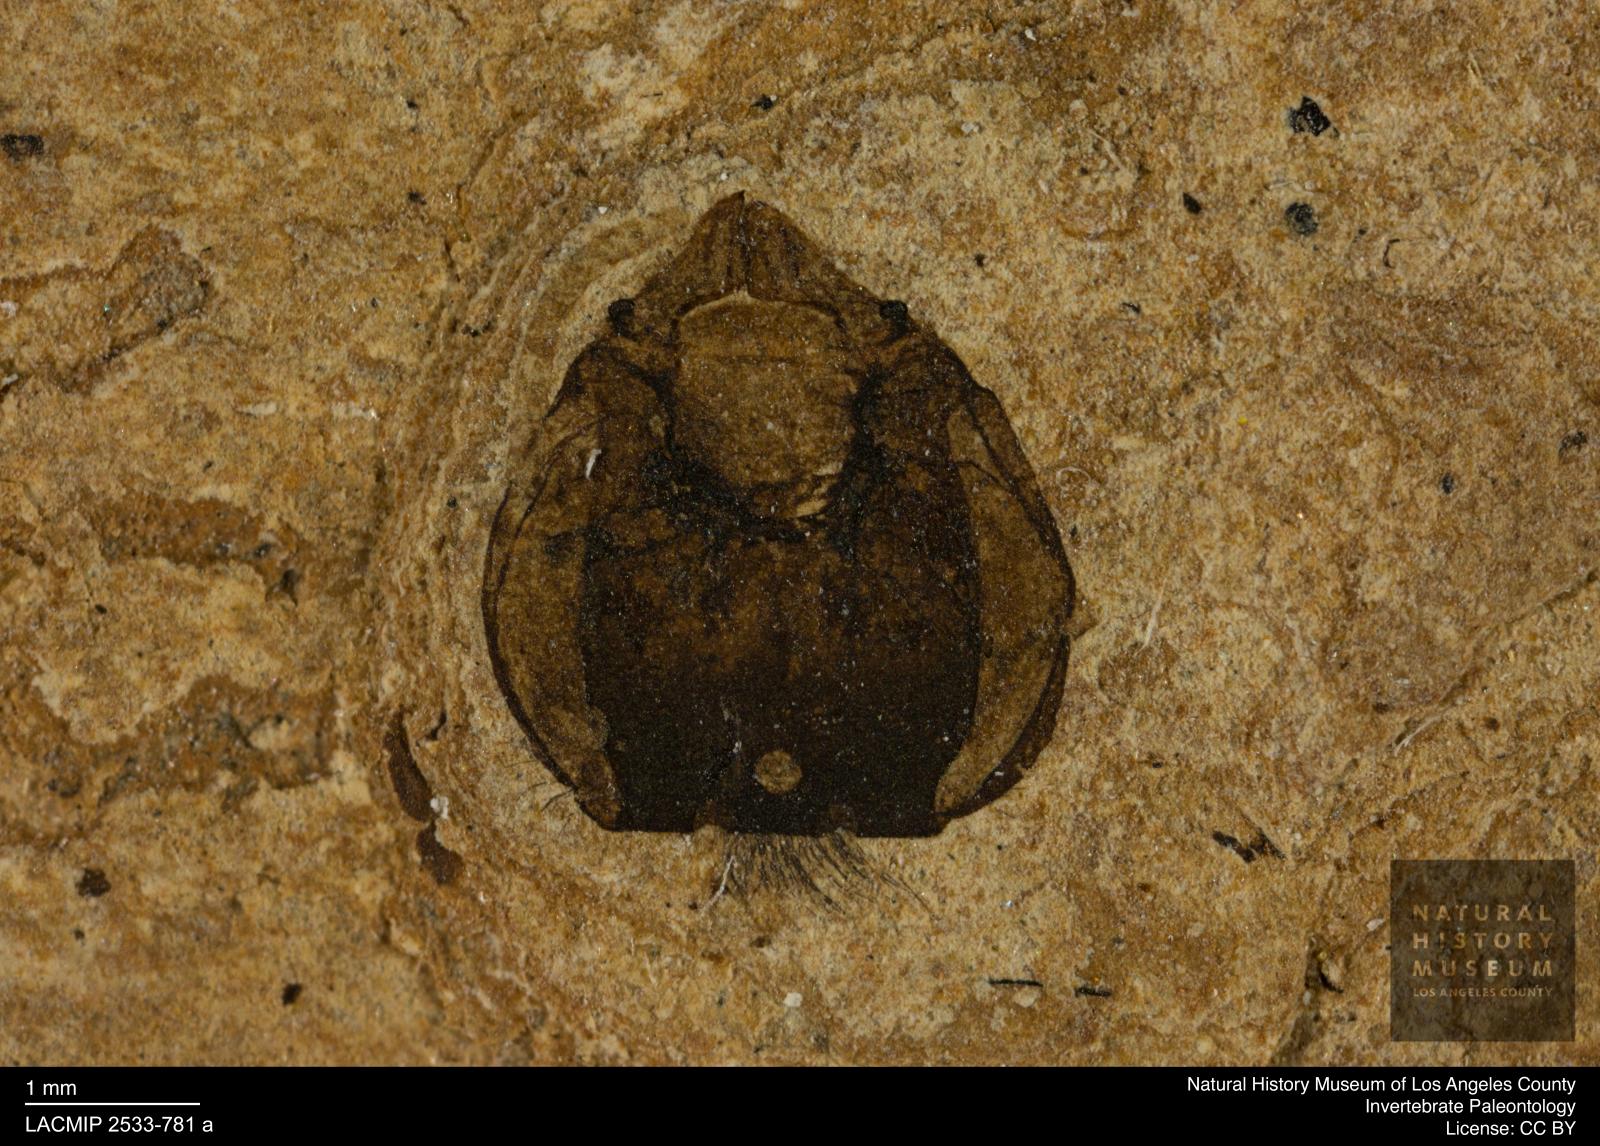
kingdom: Animalia
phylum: Arthropoda
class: Insecta
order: Hymenoptera
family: Apidae
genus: Apis
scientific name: Apis henshawi
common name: Henshaw's honey bee
